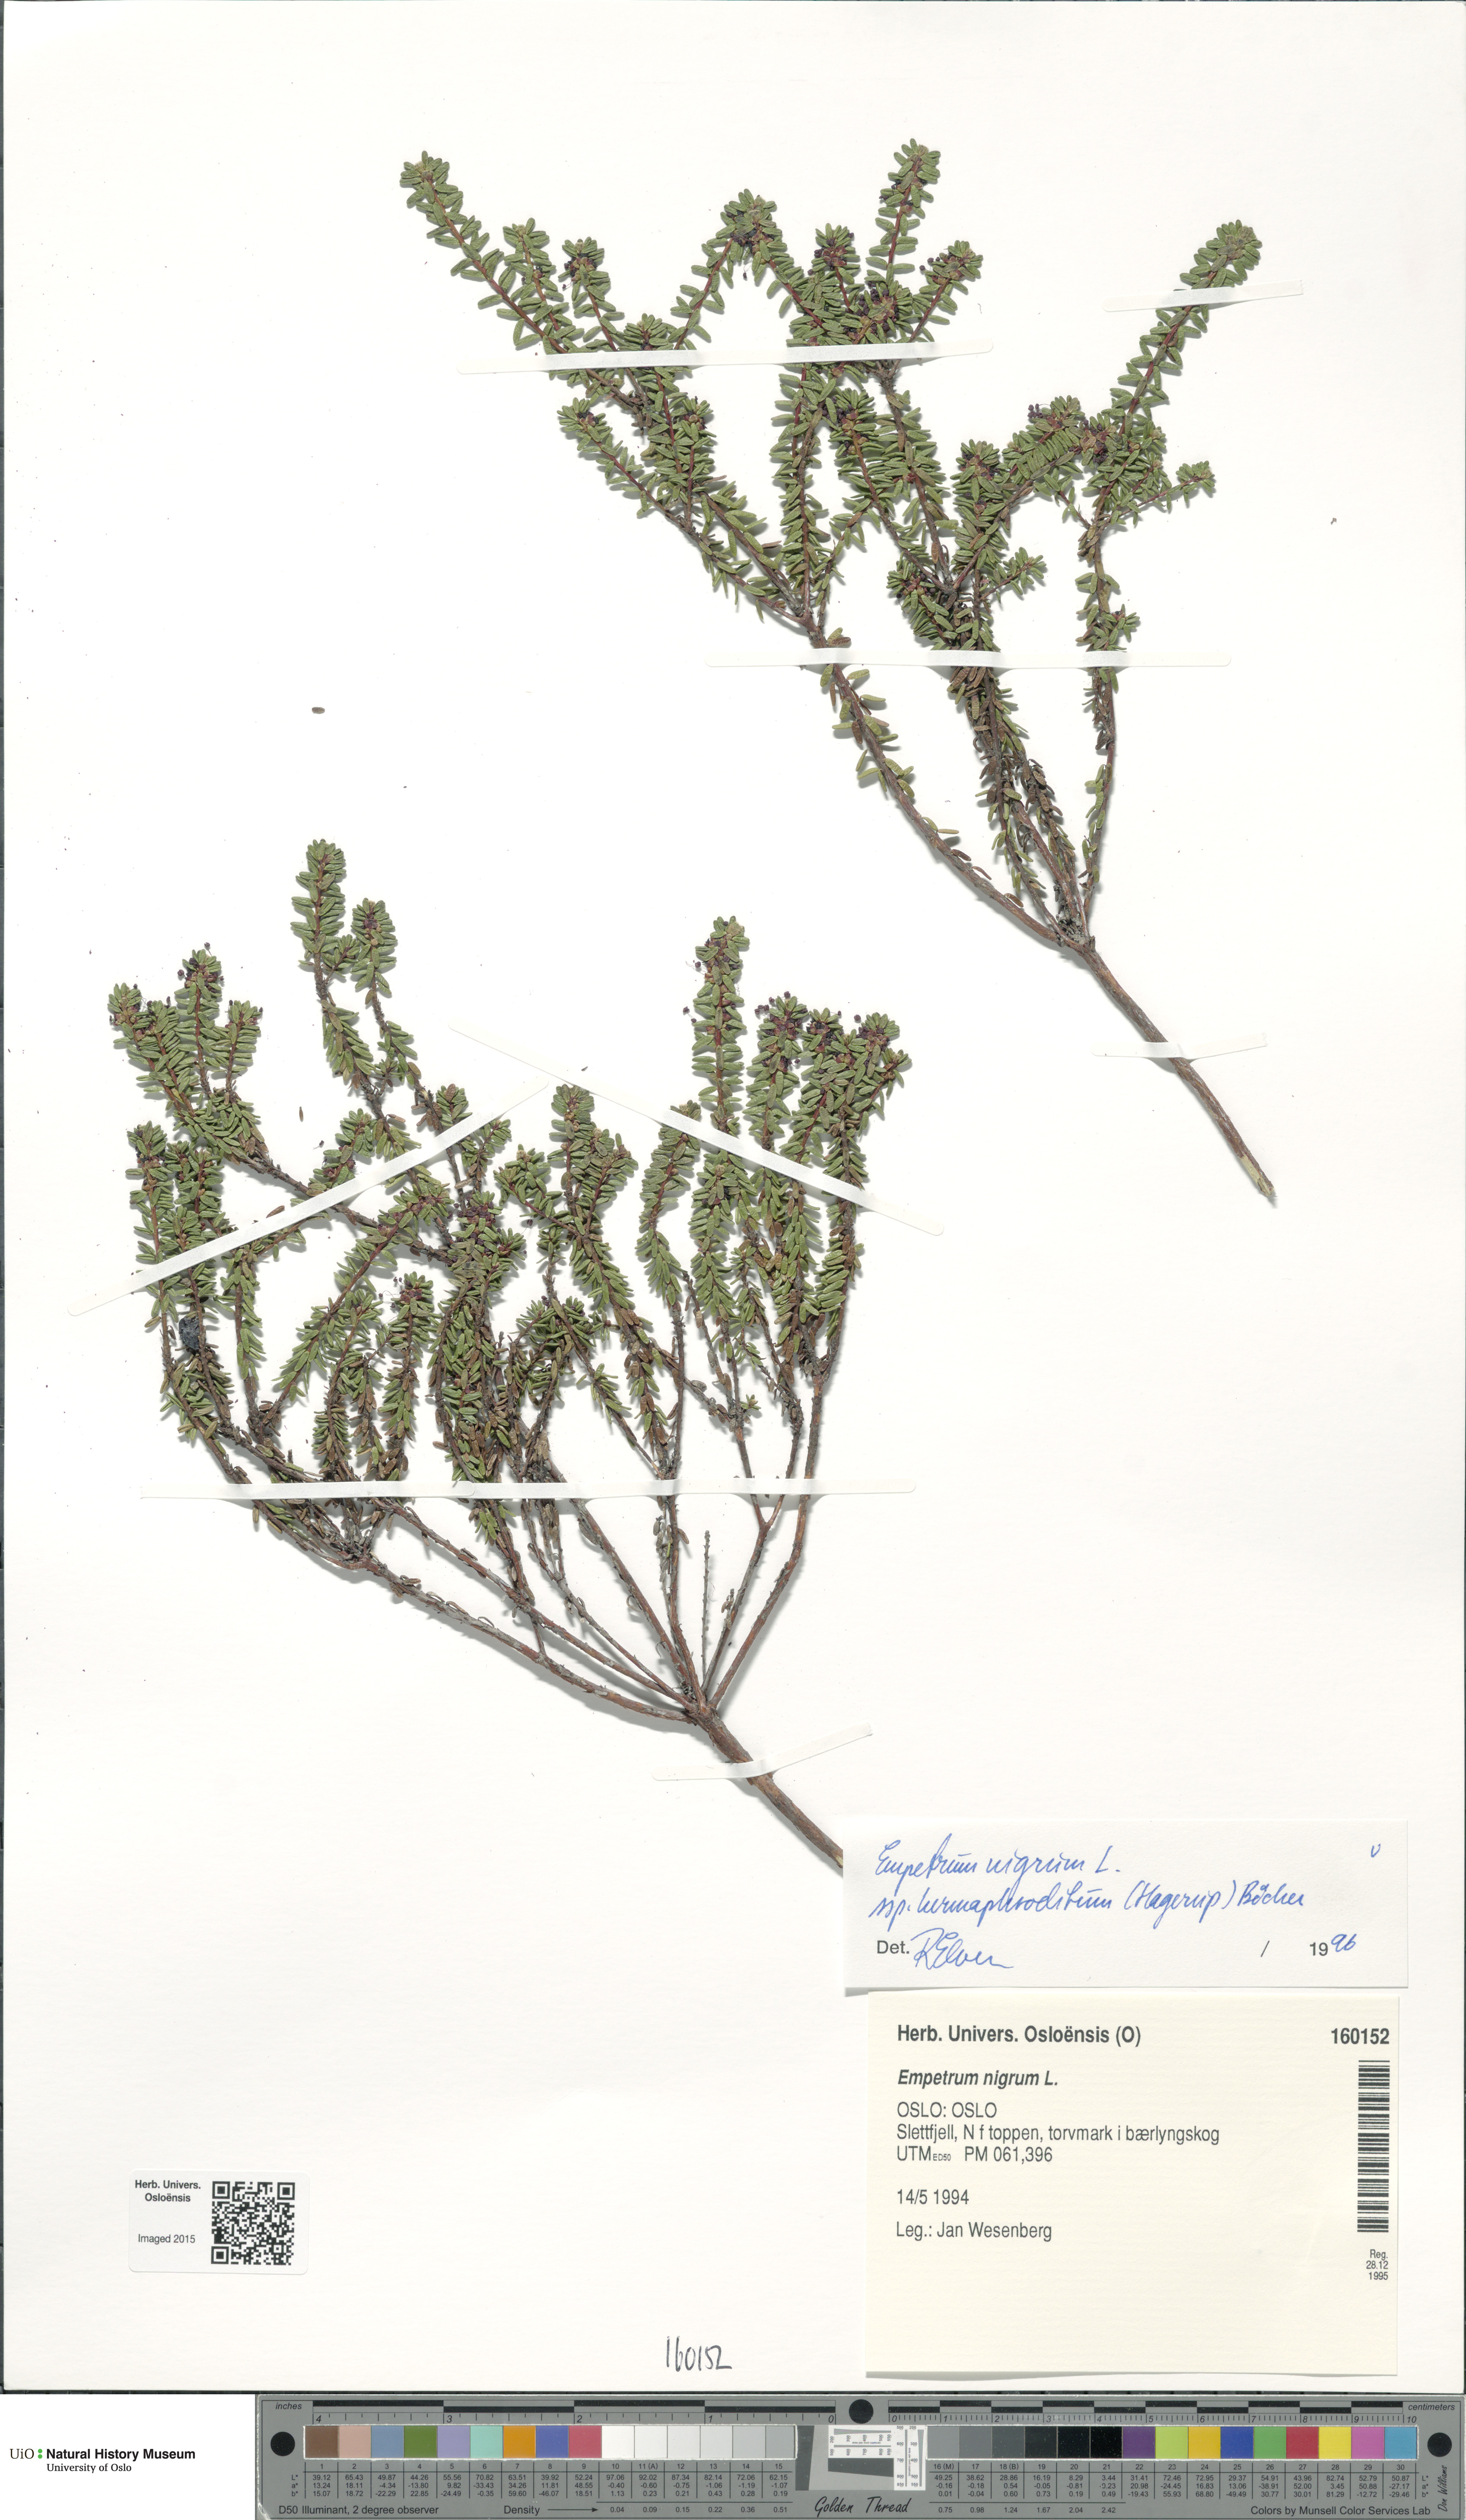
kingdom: Plantae
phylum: Tracheophyta
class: Magnoliopsida
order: Ericales
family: Ericaceae
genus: Empetrum
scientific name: Empetrum hermaphroditum
